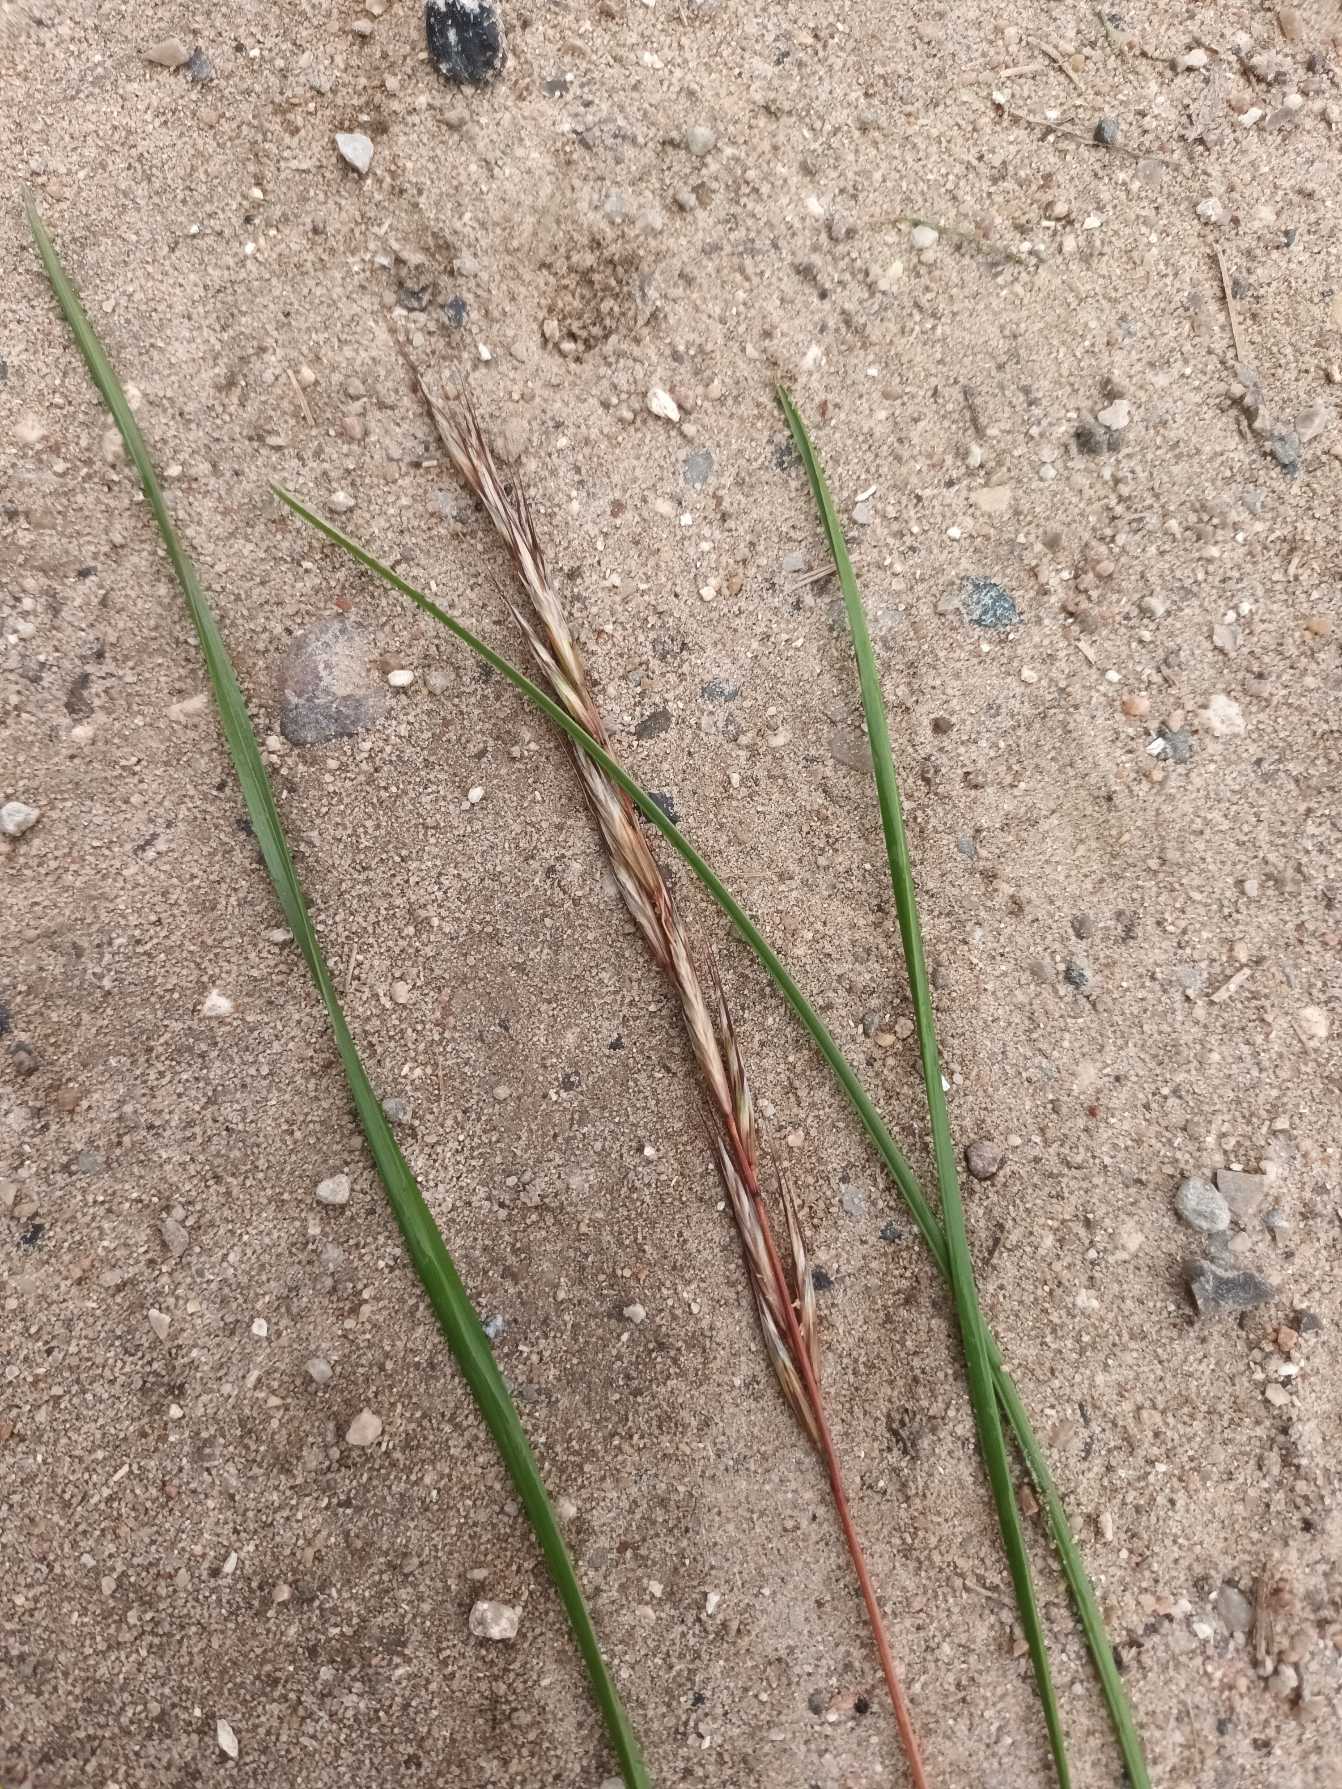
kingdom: Plantae
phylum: Tracheophyta
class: Liliopsida
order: Poales
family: Poaceae
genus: Helictochloa
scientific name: Helictochloa pratensis
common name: Eng-havre
